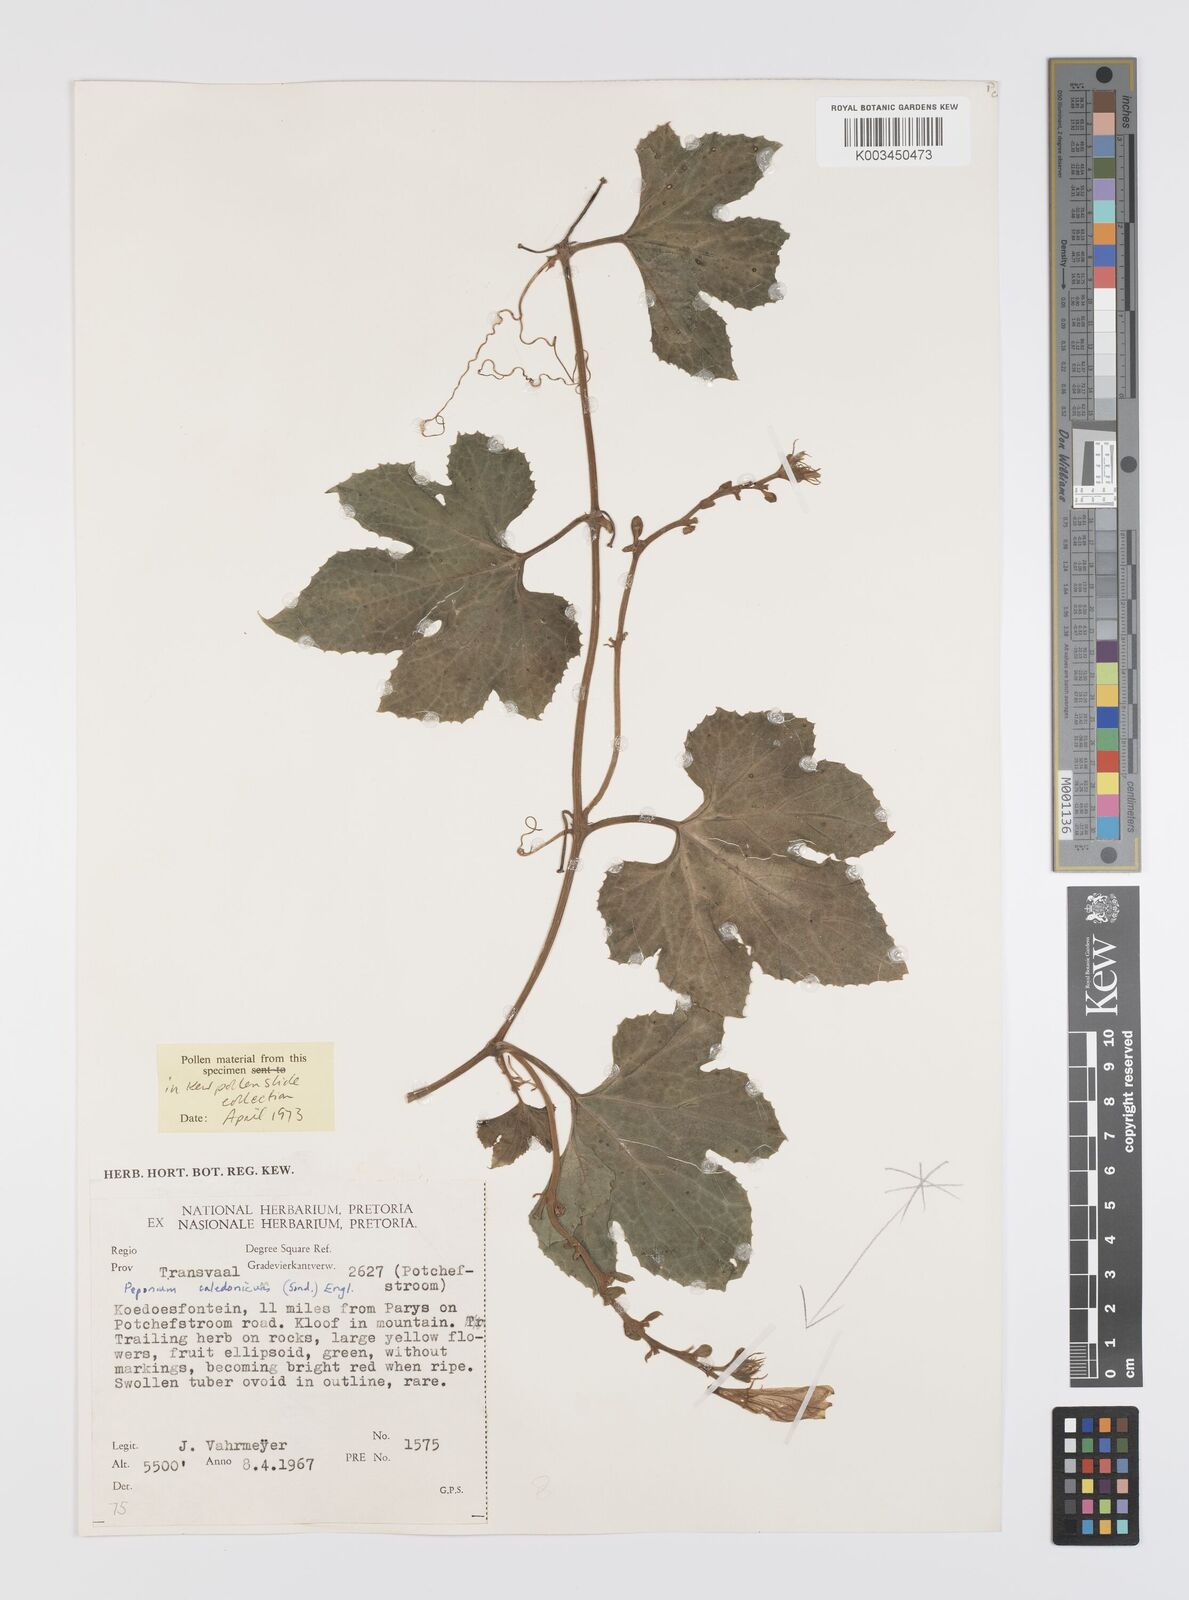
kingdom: Plantae
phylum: Tracheophyta
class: Magnoliopsida
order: Cucurbitales
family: Cucurbitaceae
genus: Peponium
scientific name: Peponium caledonicum
